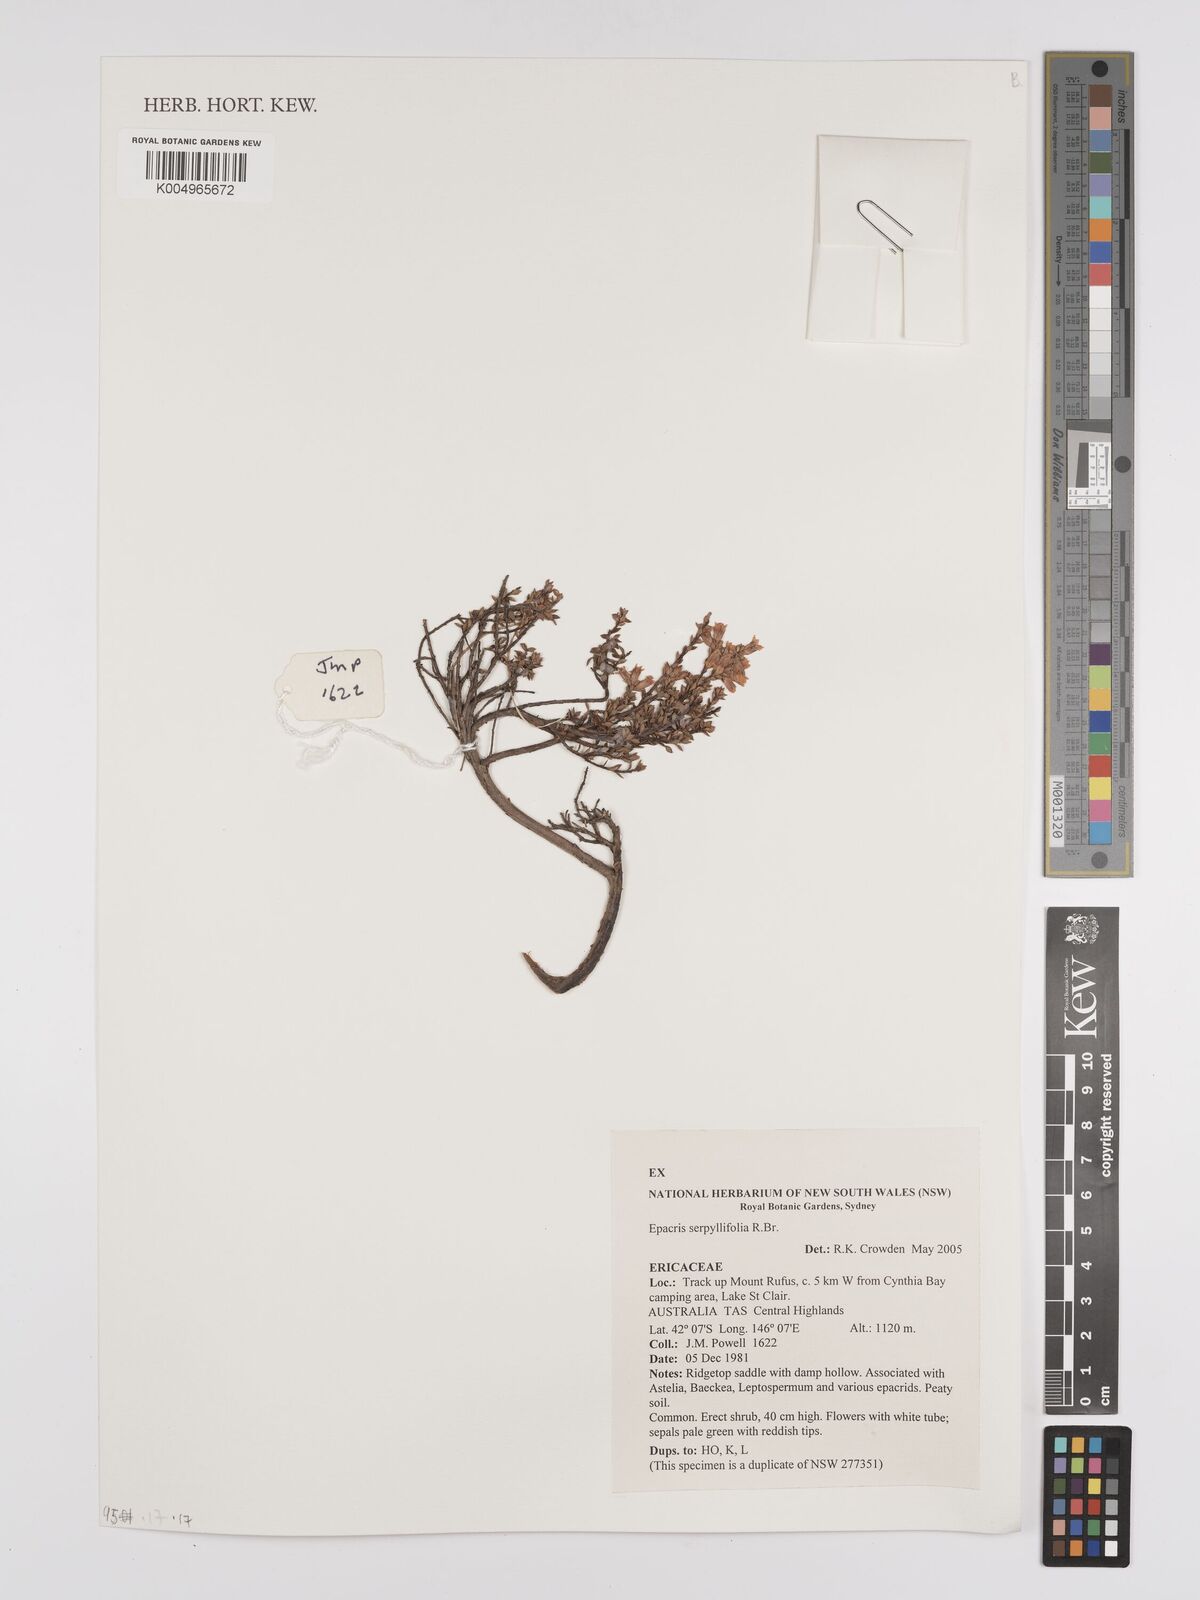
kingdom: Plantae
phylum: Tracheophyta
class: Magnoliopsida
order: Ericales
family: Ericaceae
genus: Epacris
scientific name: Epacris serpyllifolia
